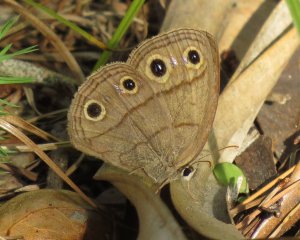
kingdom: Animalia
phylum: Arthropoda
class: Insecta
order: Lepidoptera
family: Nymphalidae
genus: Euptychia
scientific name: Euptychia cymela
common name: Little Wood Satyr
